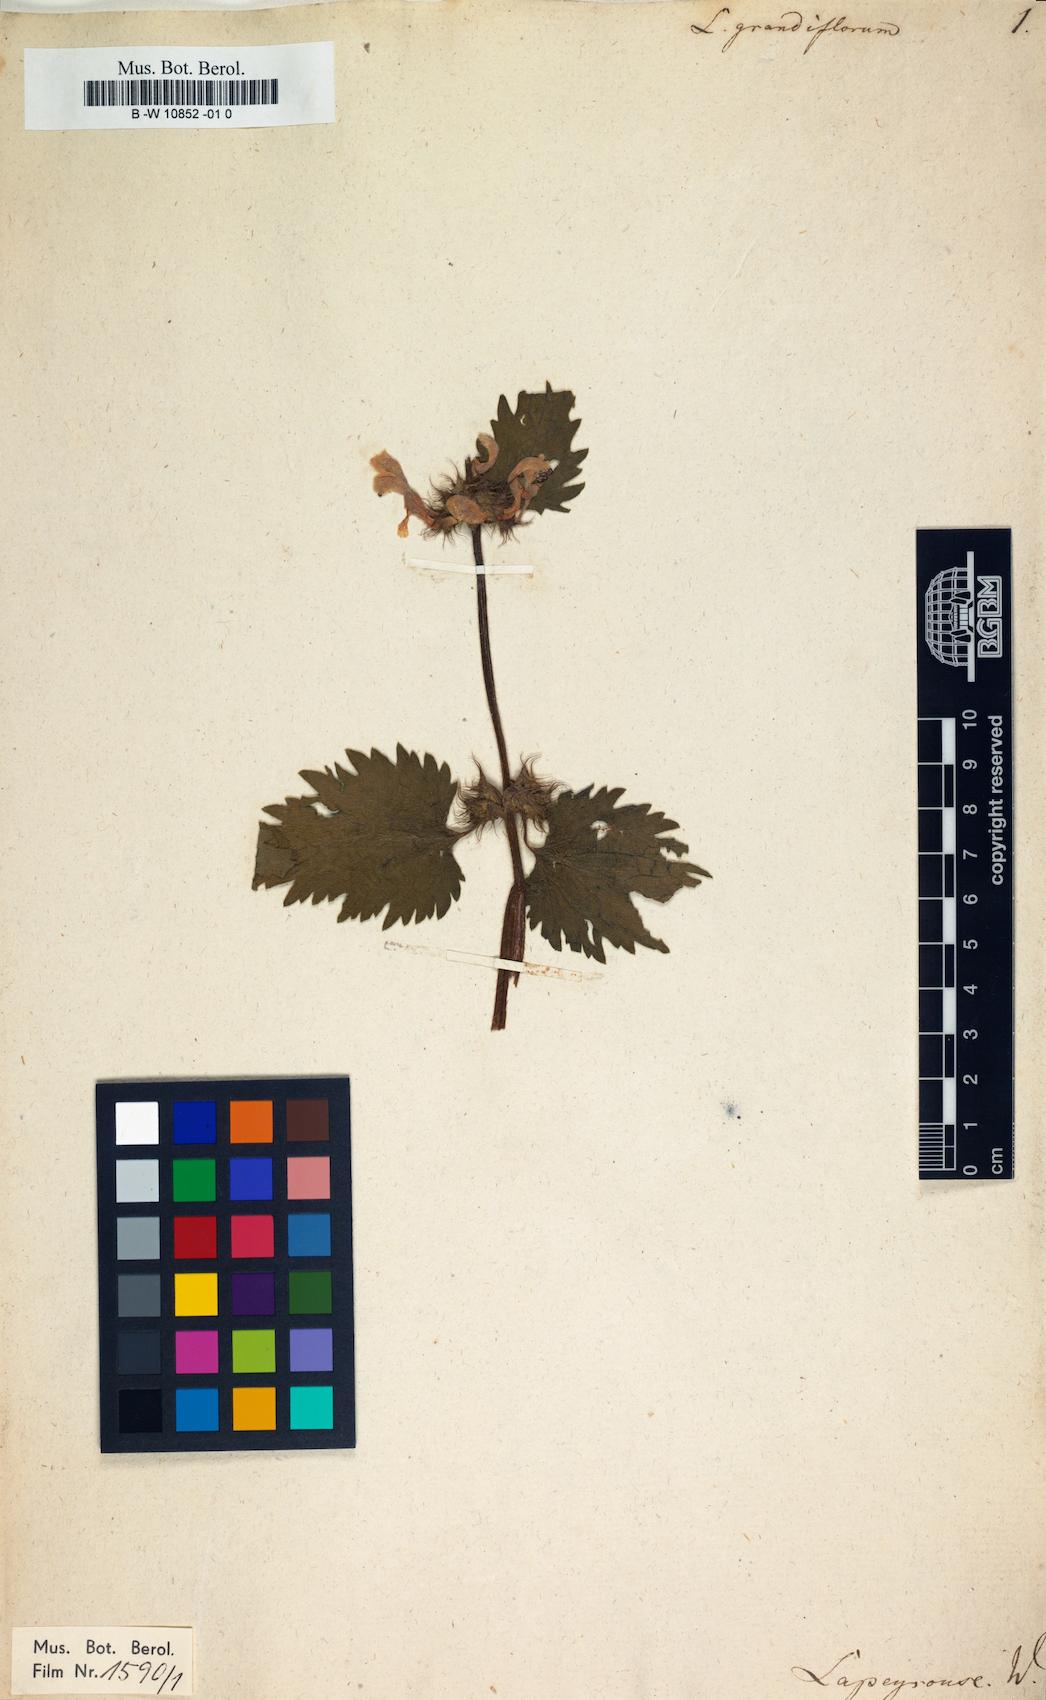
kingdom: Plantae
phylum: Tracheophyta
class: Magnoliopsida
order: Lamiales
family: Lamiaceae
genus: Lamium
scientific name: Lamium garganicum
